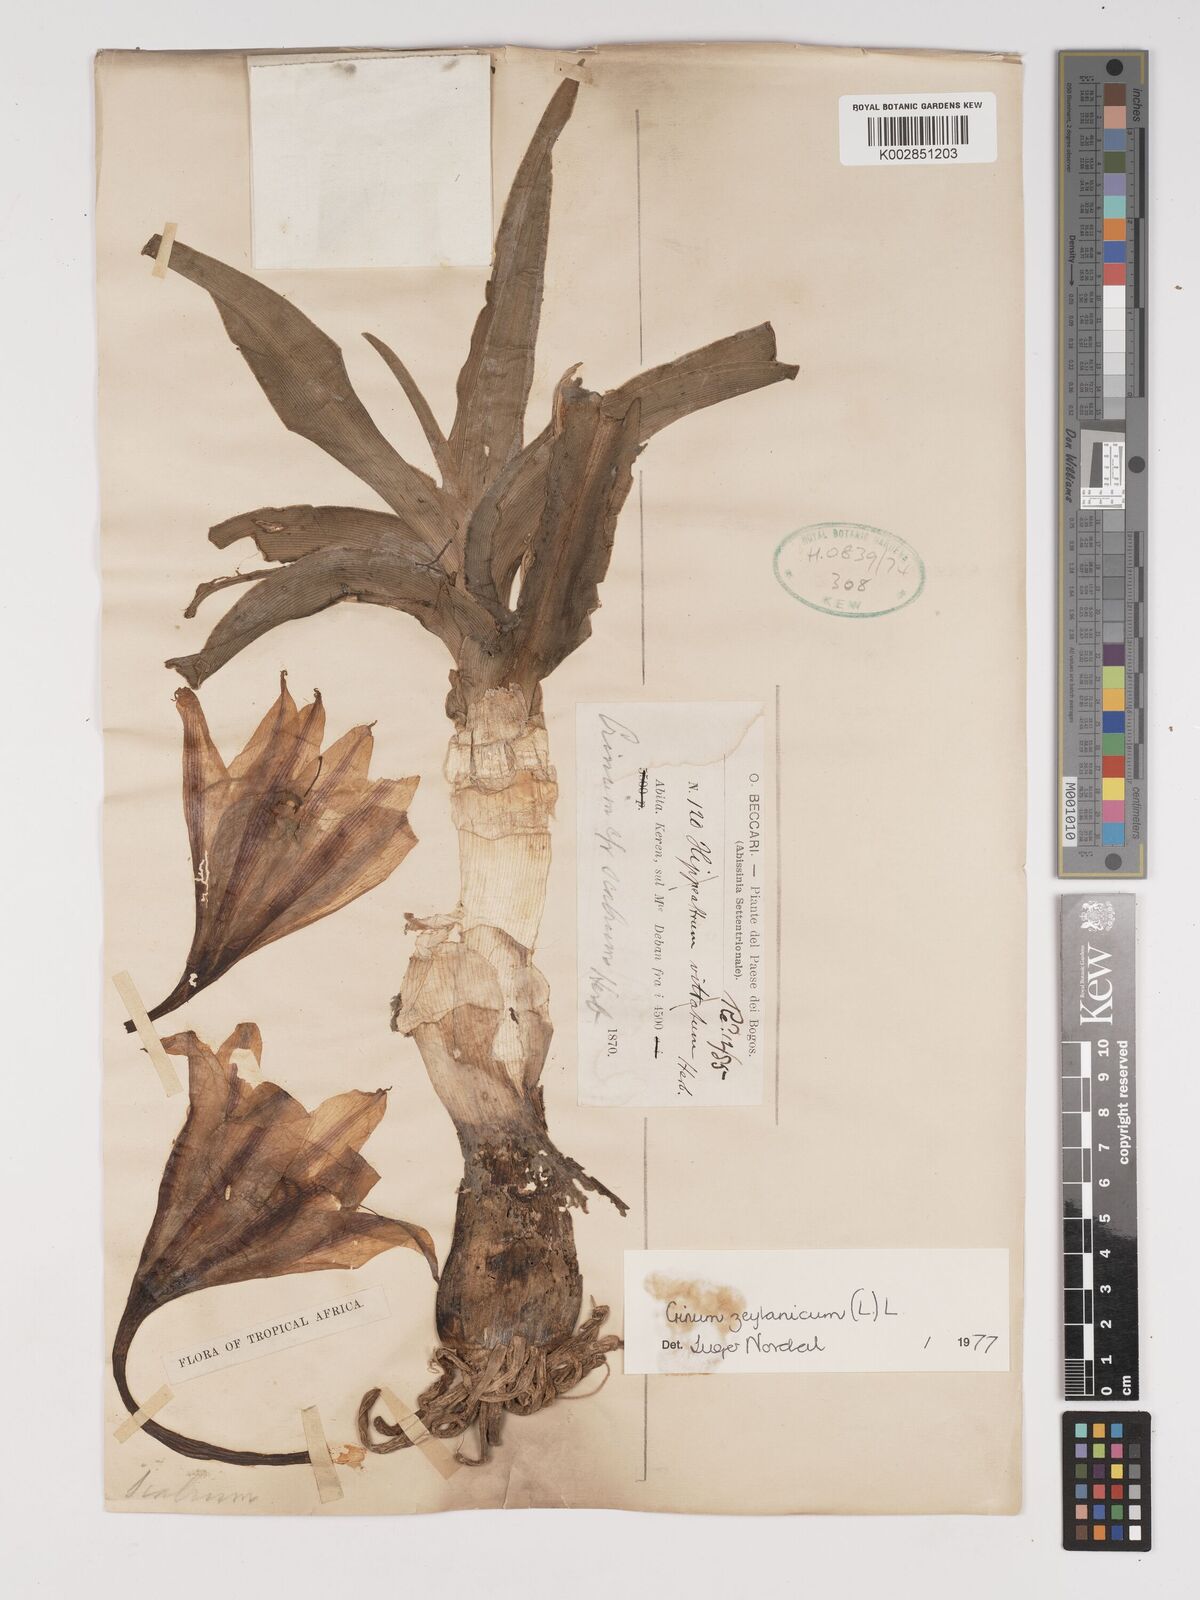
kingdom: Plantae
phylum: Tracheophyta
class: Liliopsida
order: Asparagales
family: Amaryllidaceae
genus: Crinum
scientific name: Crinum zeylanicum
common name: Ceylon swamplily
